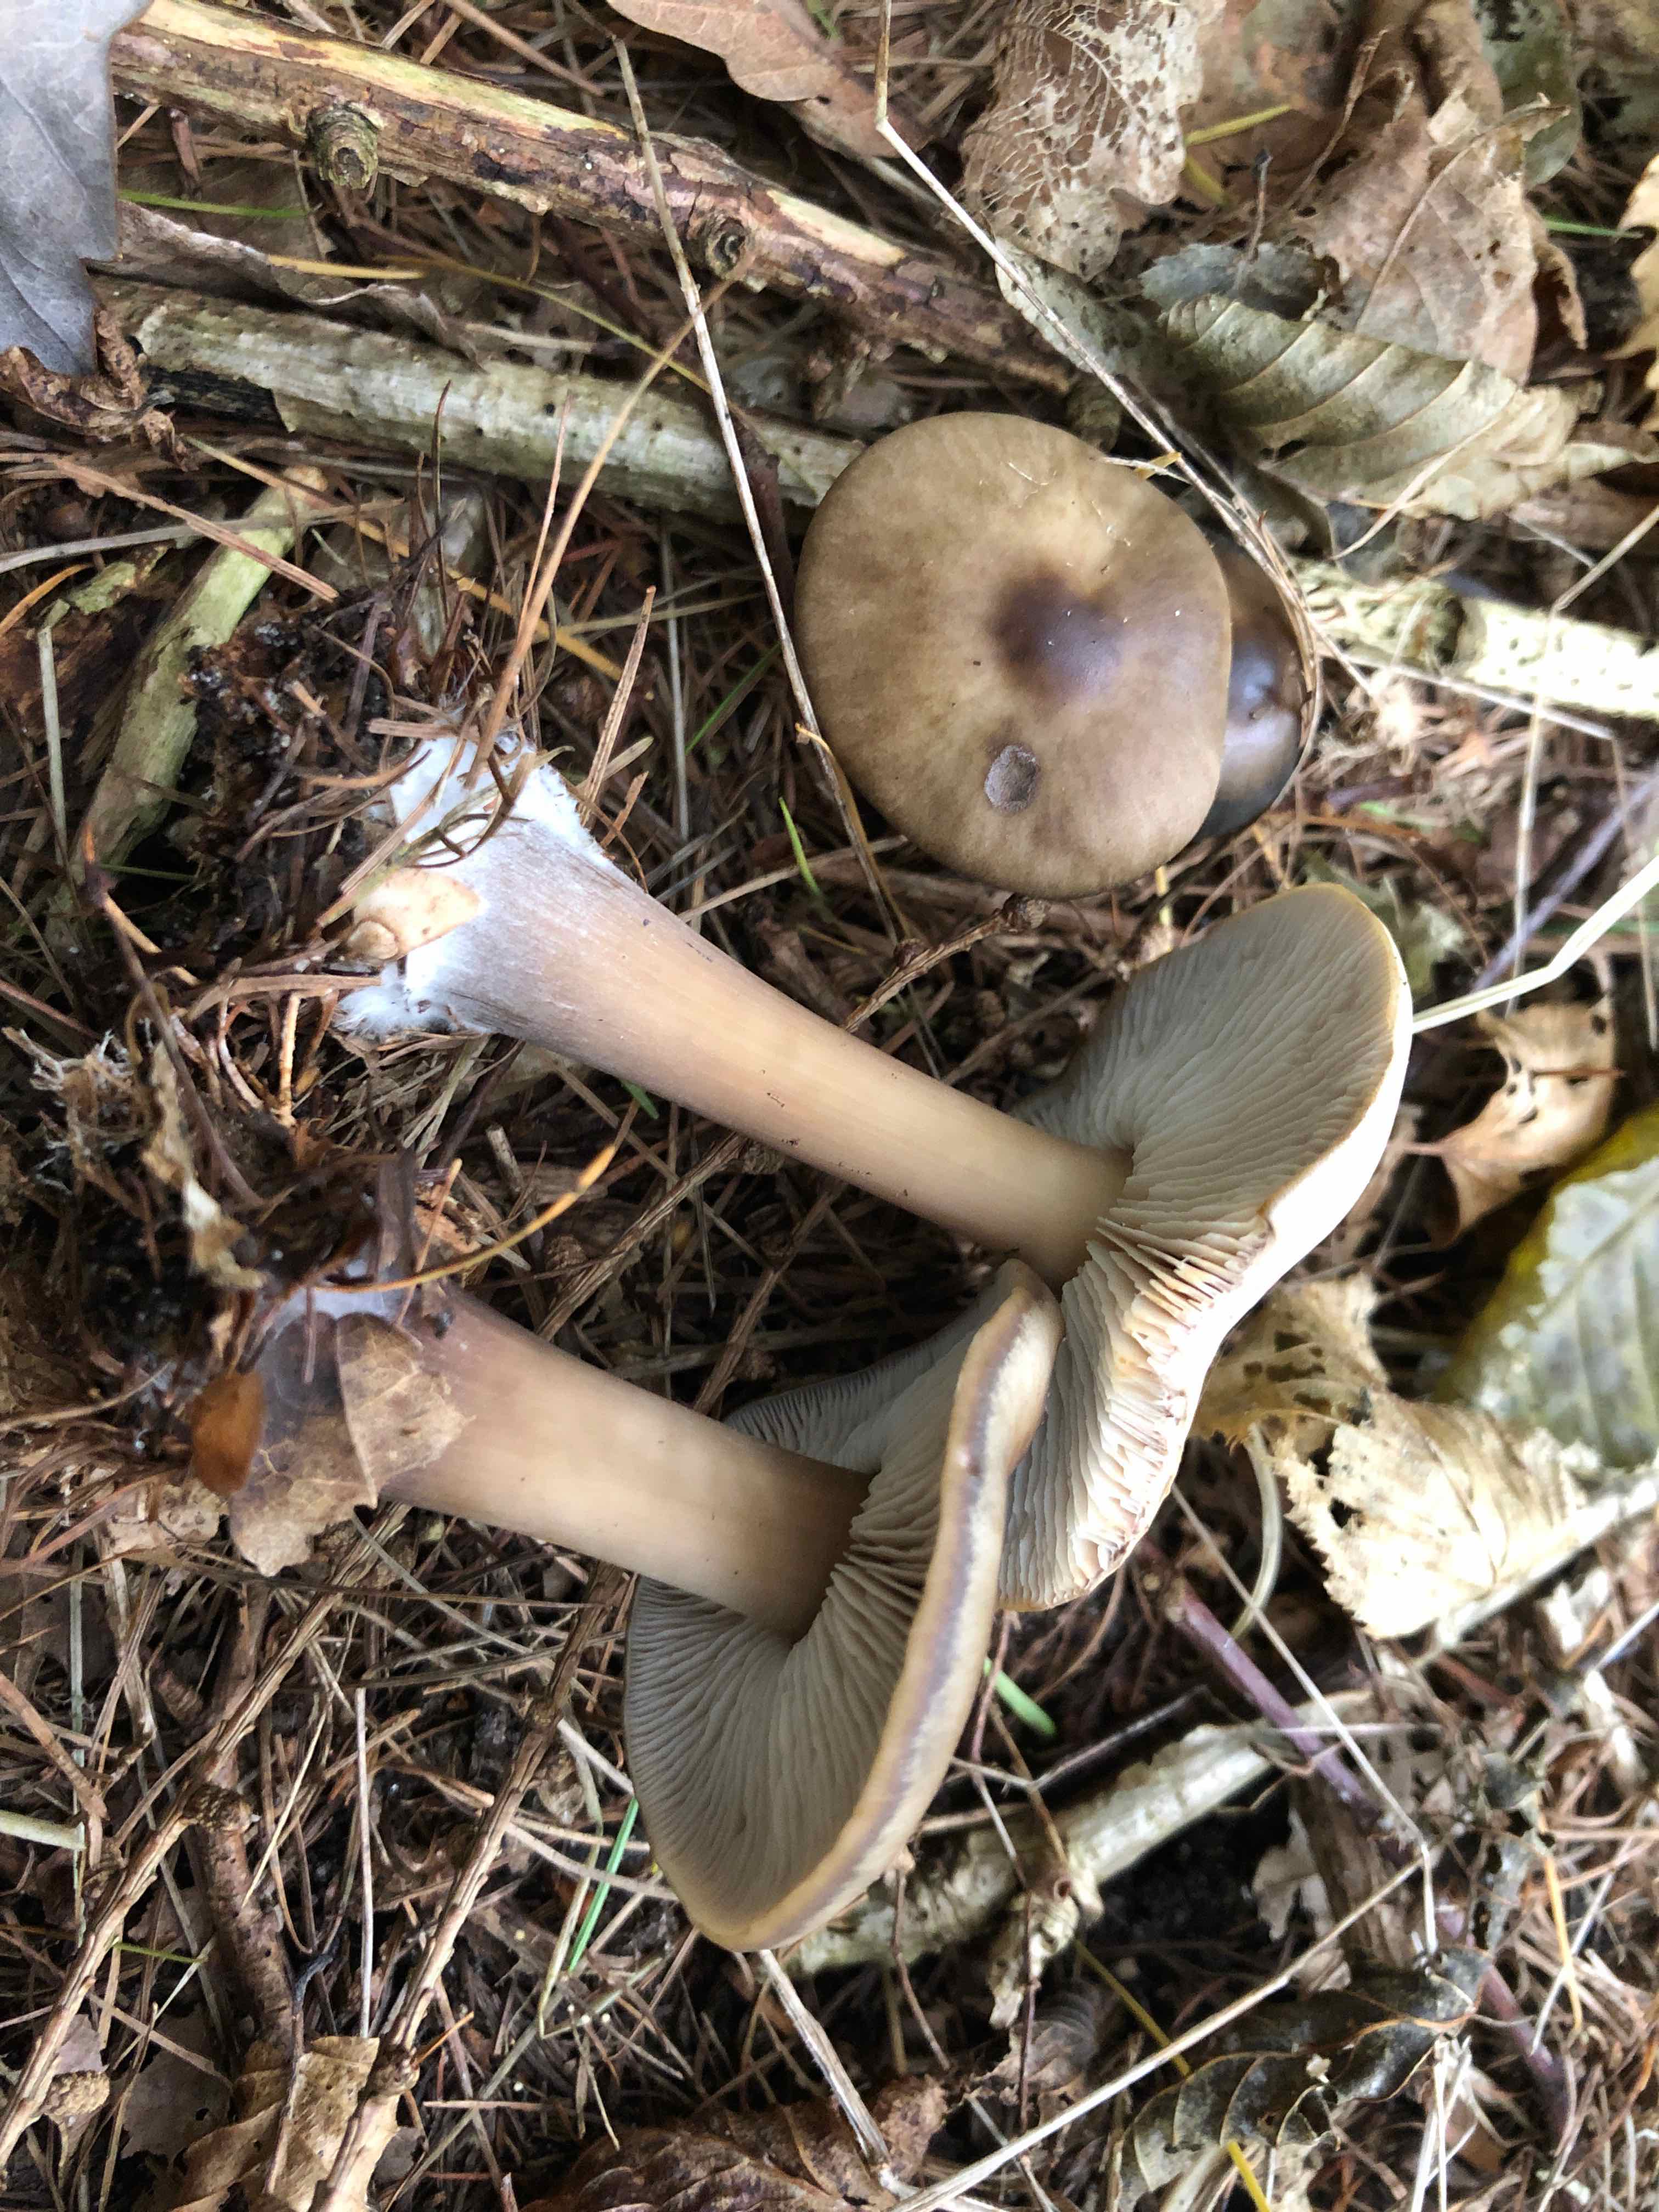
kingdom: Fungi
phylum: Basidiomycota
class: Agaricomycetes
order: Agaricales
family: Omphalotaceae
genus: Rhodocollybia
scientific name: Rhodocollybia asema
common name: horngrå fladhat
